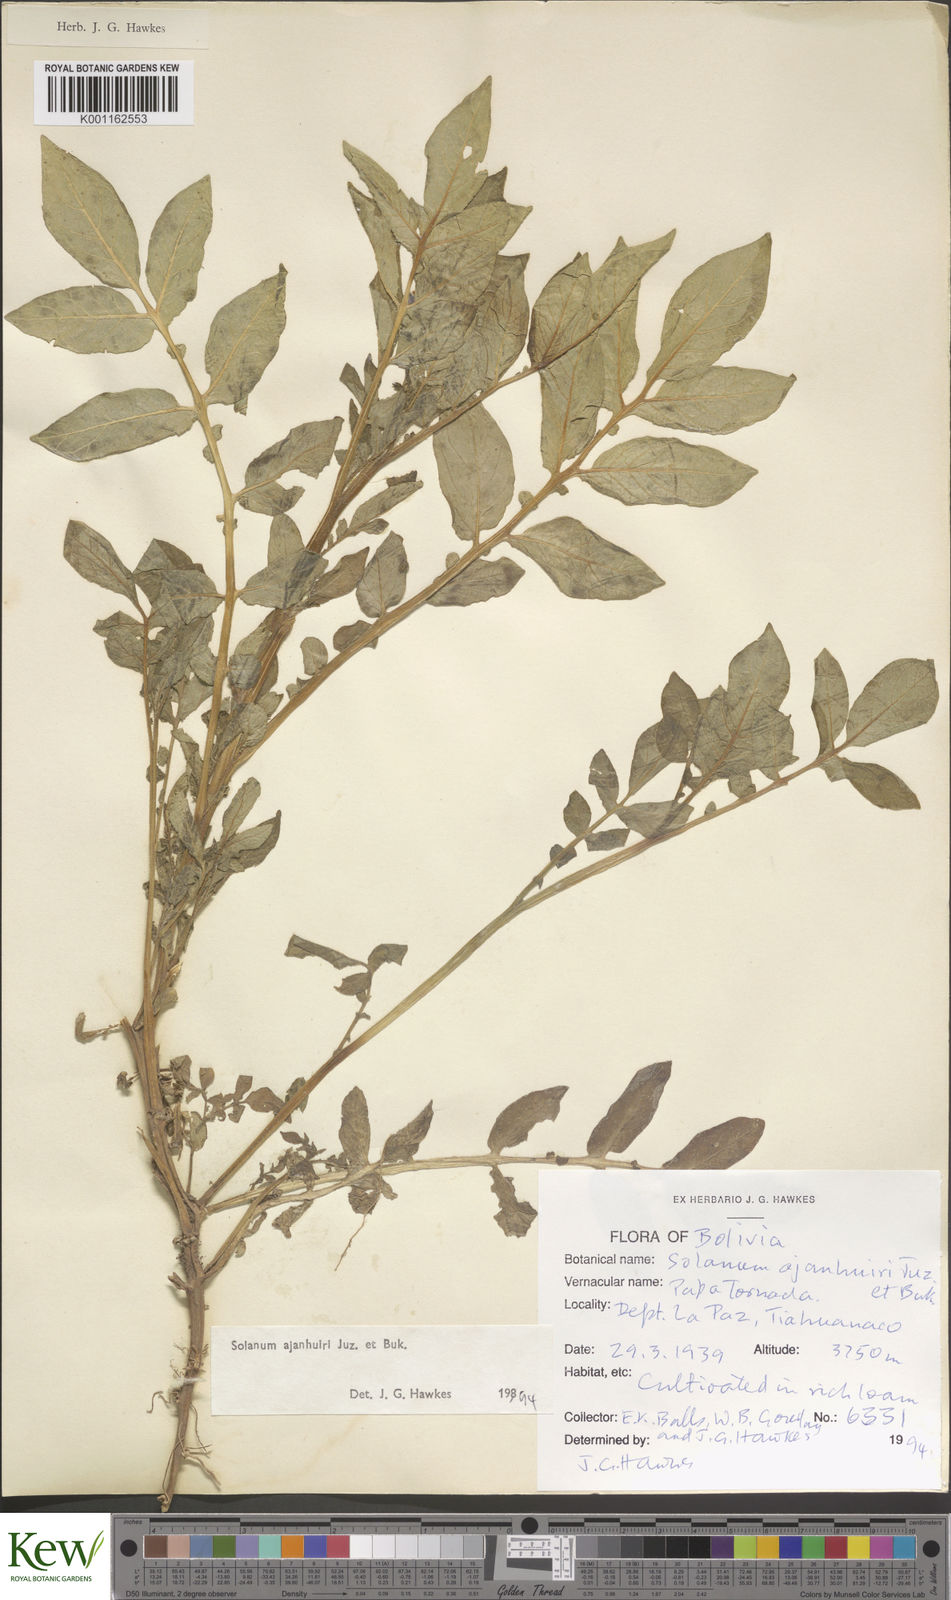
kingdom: Plantae
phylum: Tracheophyta
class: Magnoliopsida
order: Solanales
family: Solanaceae
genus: Solanum
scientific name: Solanum ajanhuiri
